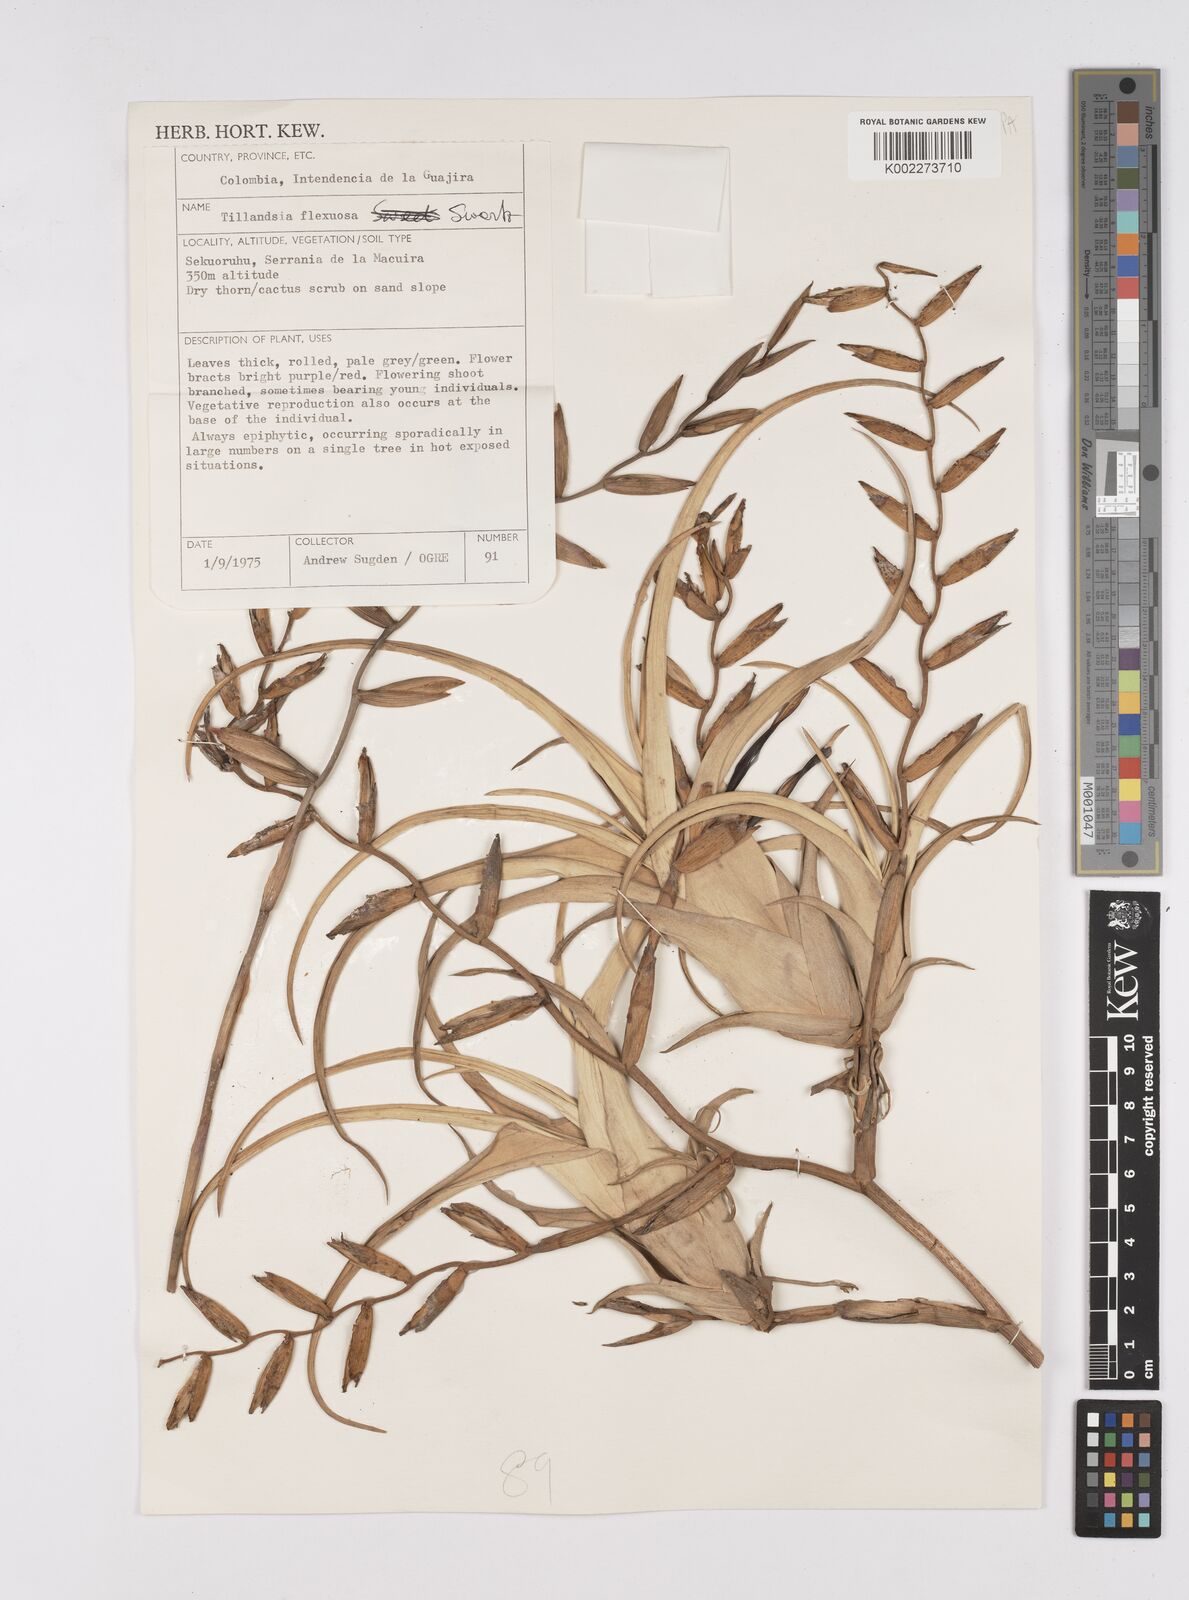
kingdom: Plantae
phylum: Tracheophyta
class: Liliopsida
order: Poales
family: Bromeliaceae
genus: Tillandsia
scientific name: Tillandsia flexuosa
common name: Banded airplant
